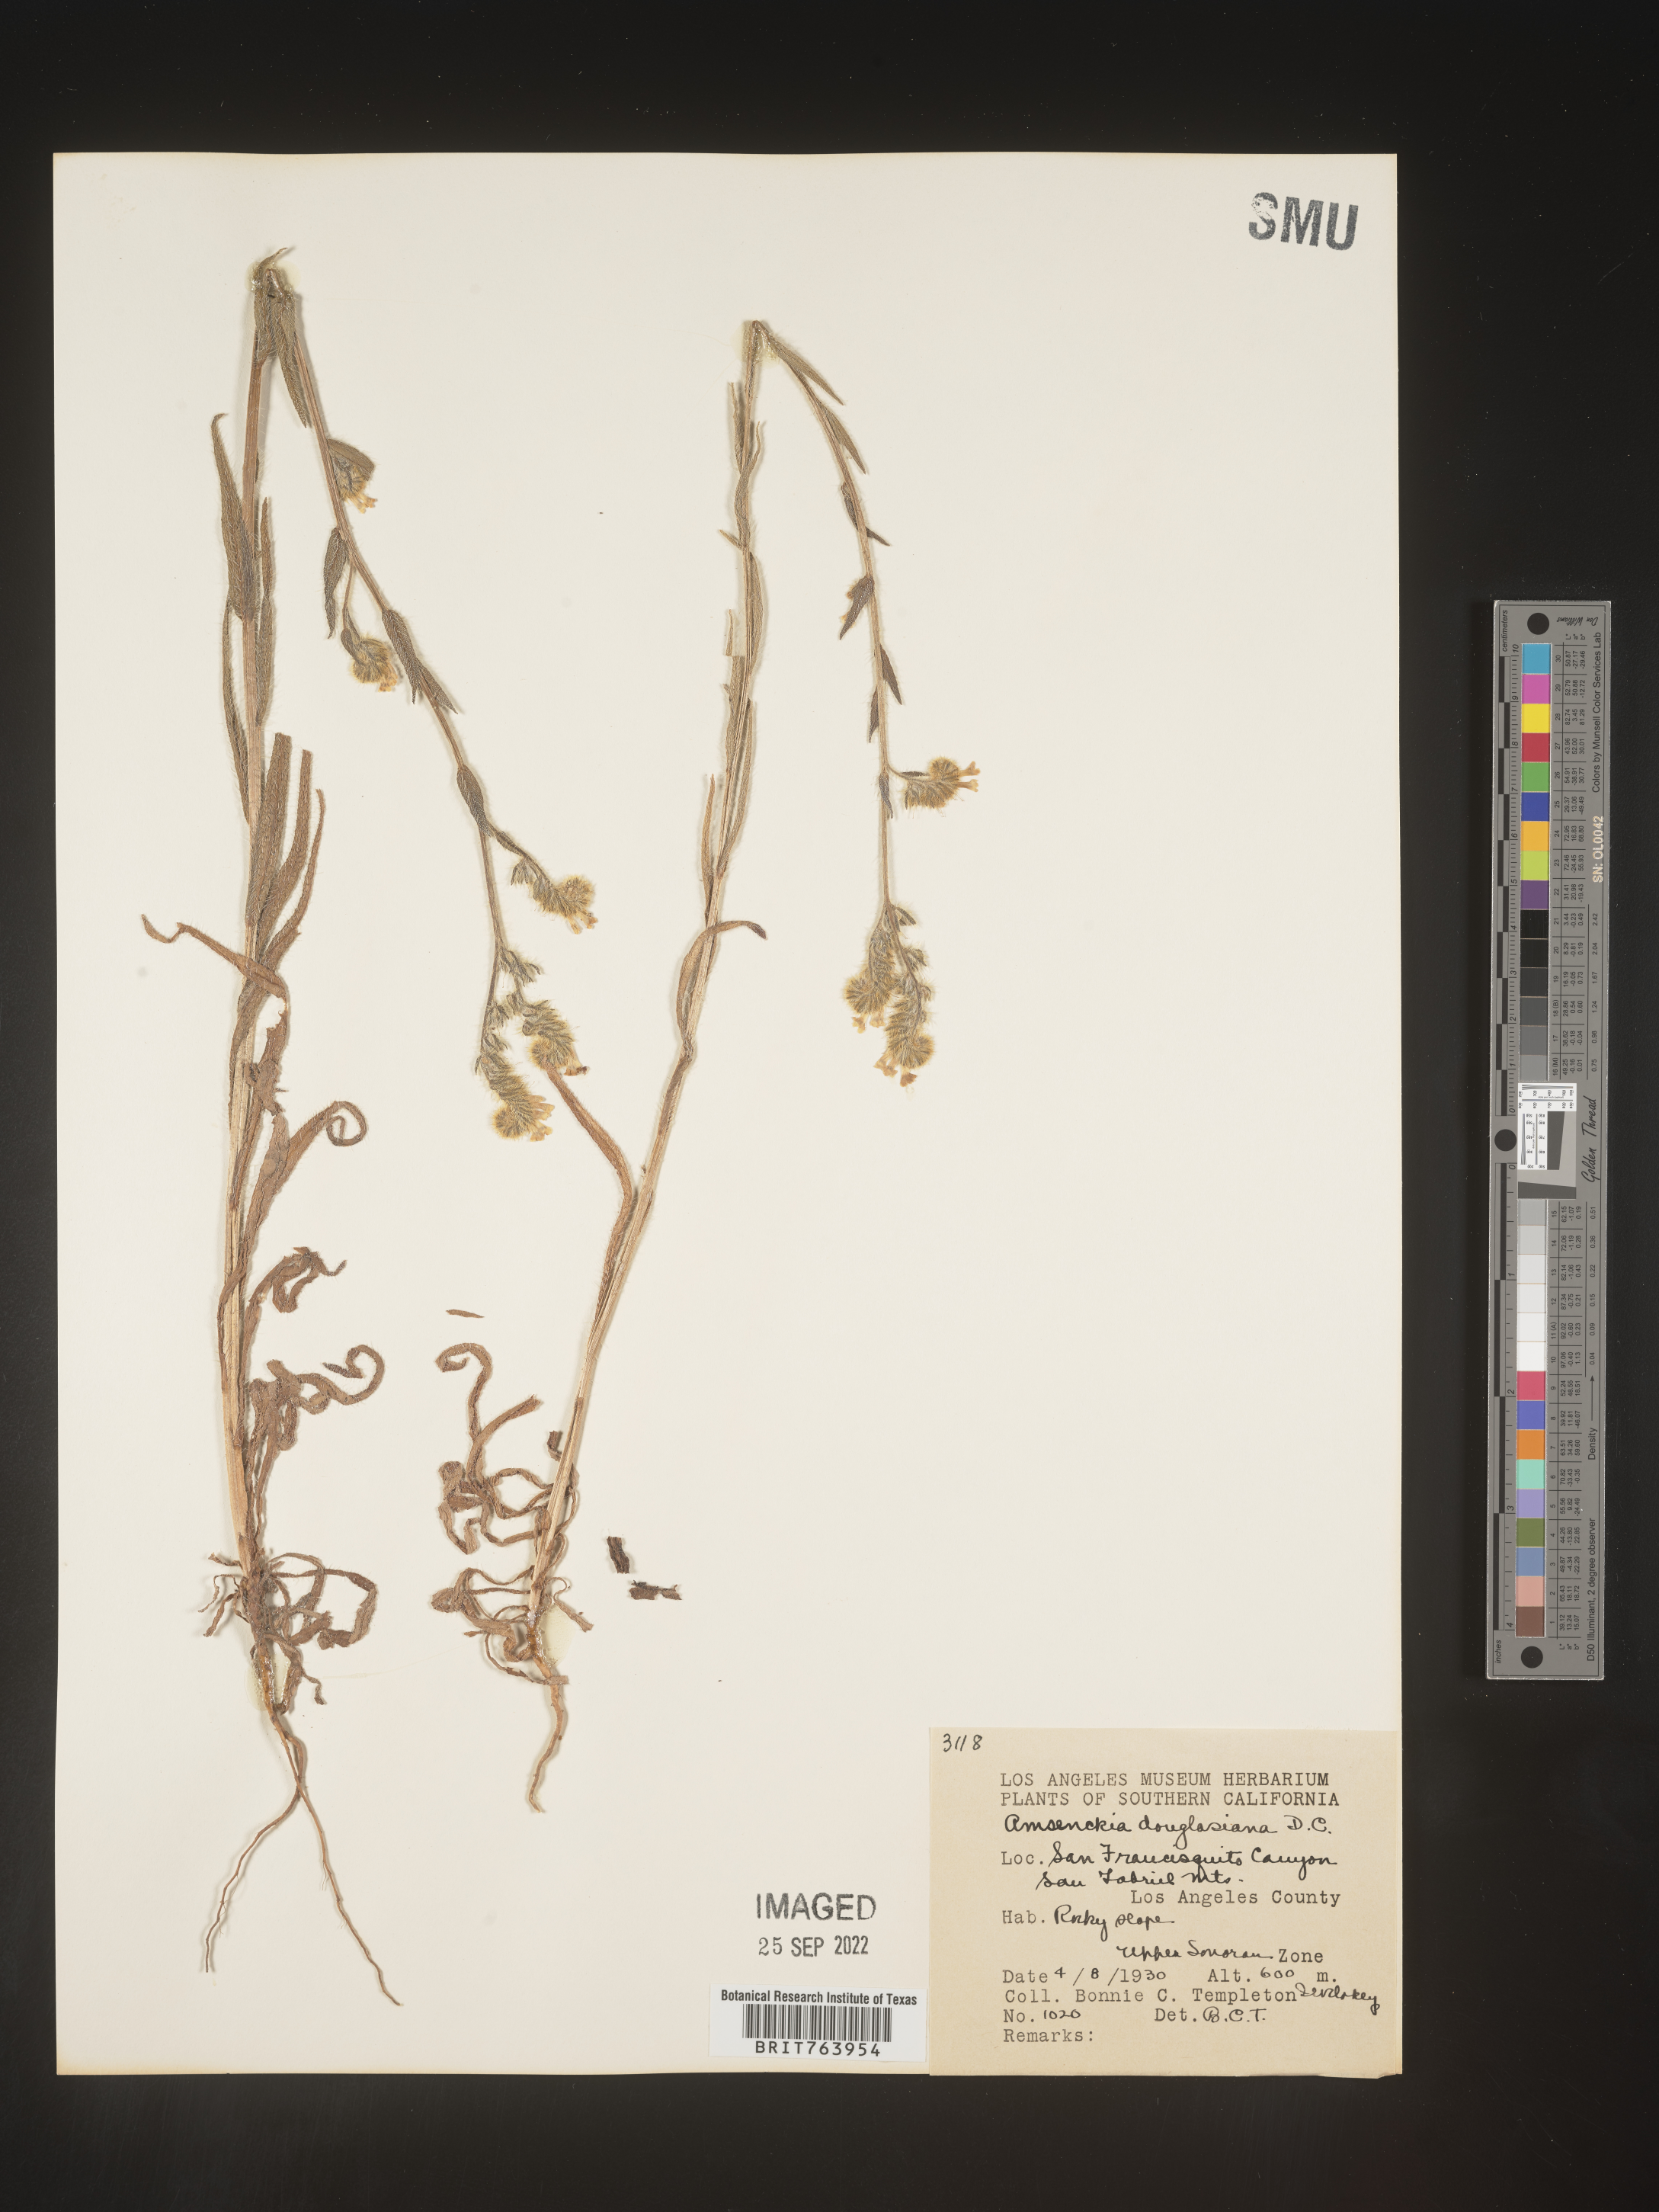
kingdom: Plantae
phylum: Tracheophyta
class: Magnoliopsida
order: Boraginales
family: Boraginaceae
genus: Amsinckia
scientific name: Amsinckia
